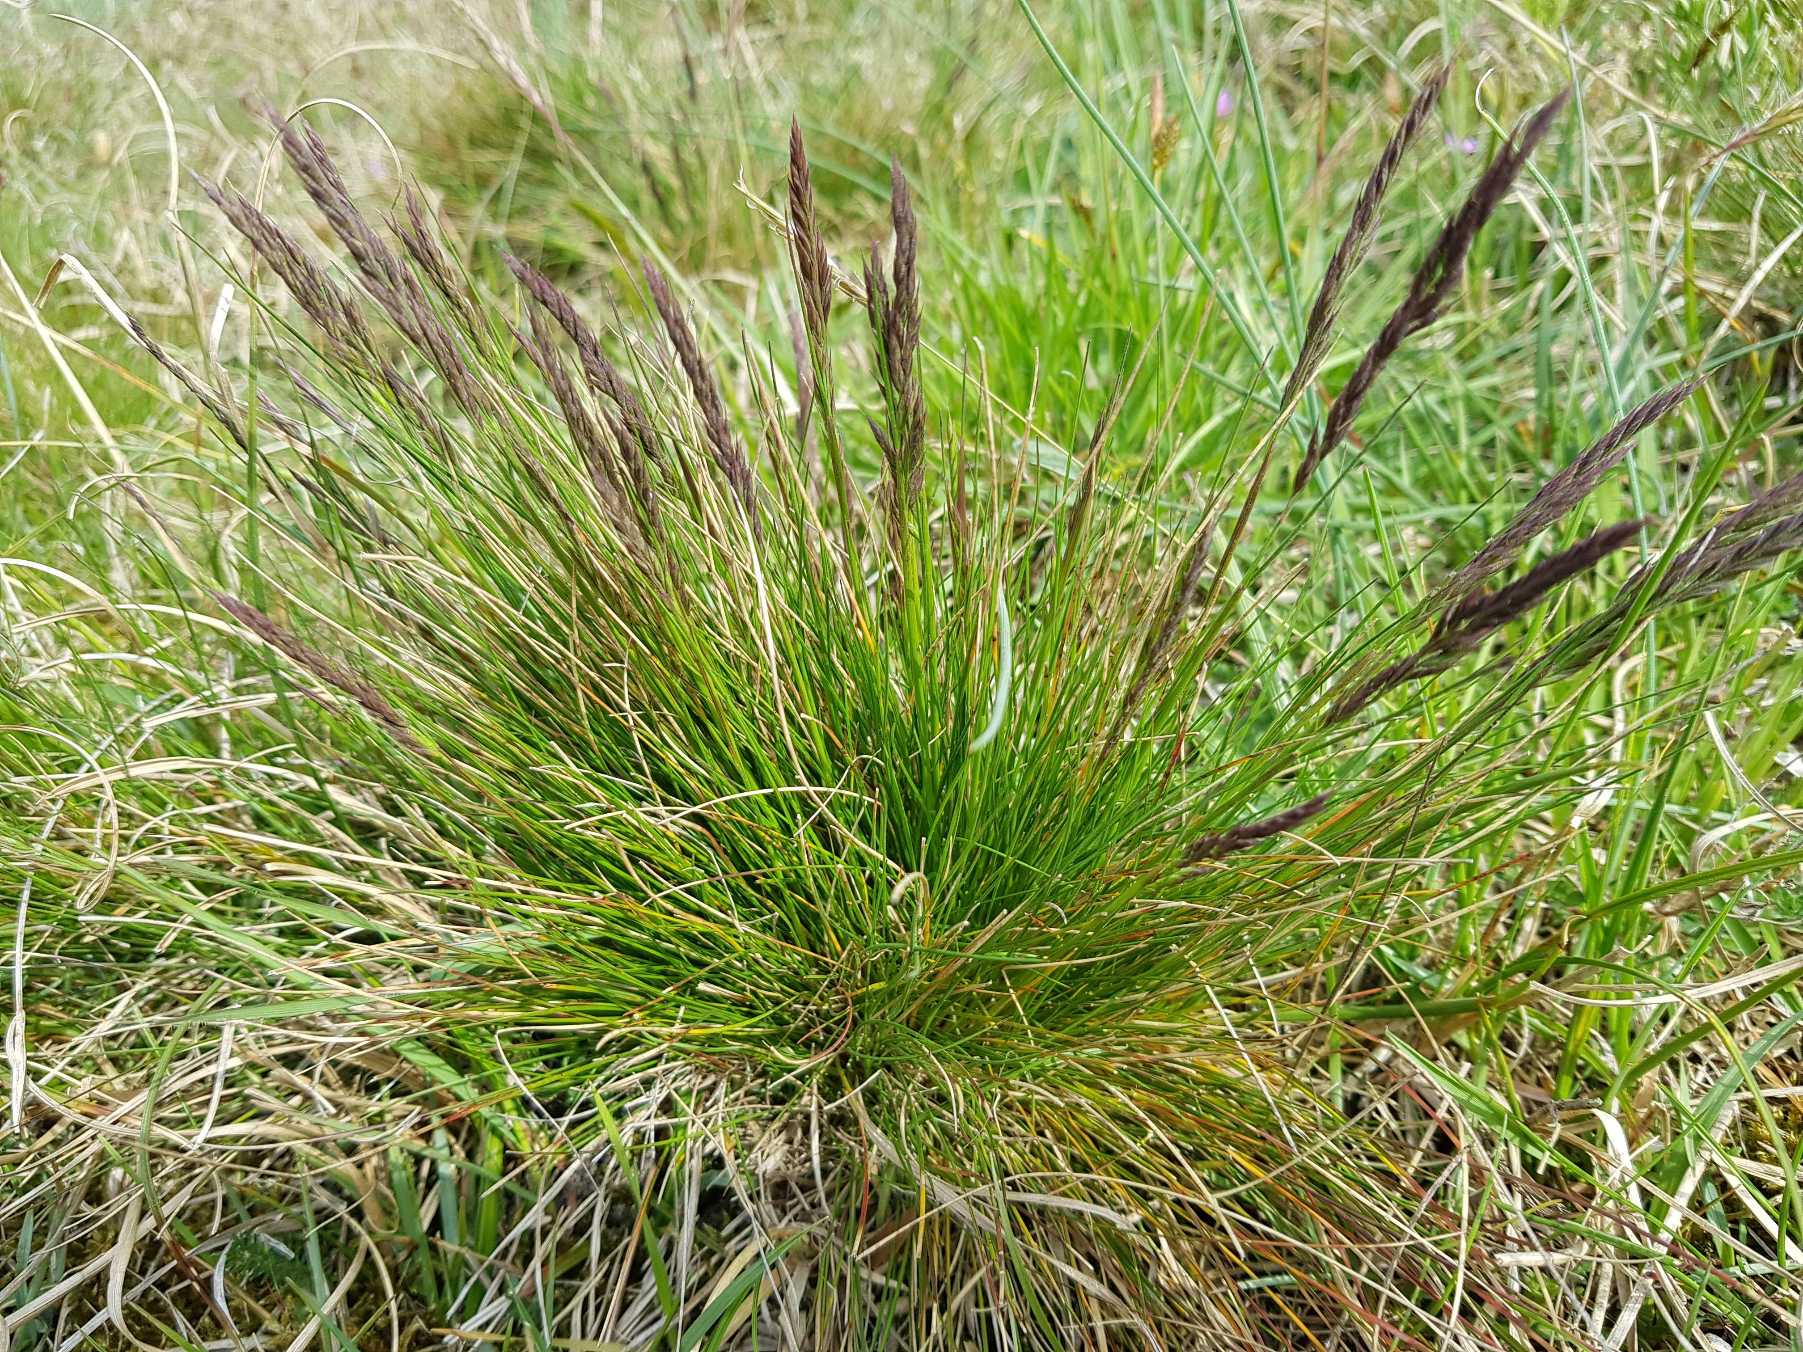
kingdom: Plantae
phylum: Tracheophyta
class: Liliopsida
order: Poales
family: Poaceae
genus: Festuca
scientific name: Festuca ovina
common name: Fåre-svingel
